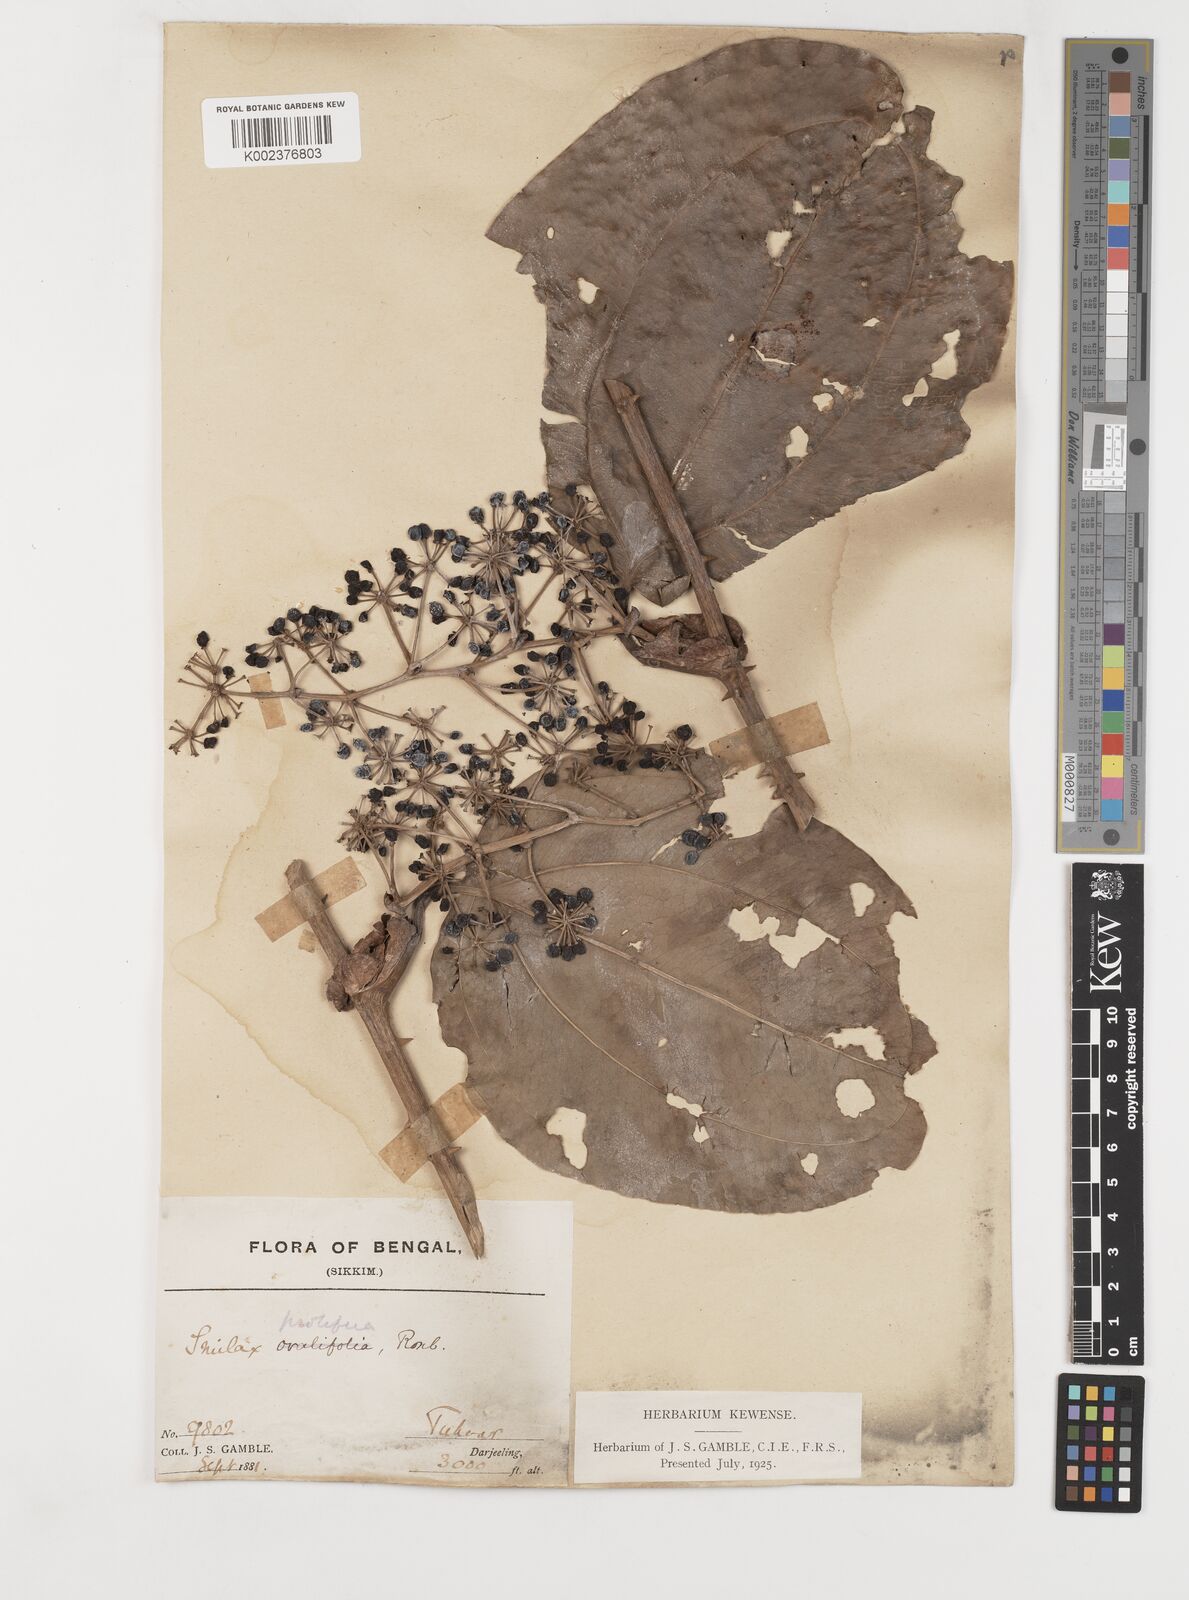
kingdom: Plantae
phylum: Tracheophyta
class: Liliopsida
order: Liliales
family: Smilacaceae
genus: Smilax
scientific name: Smilax prolifera
